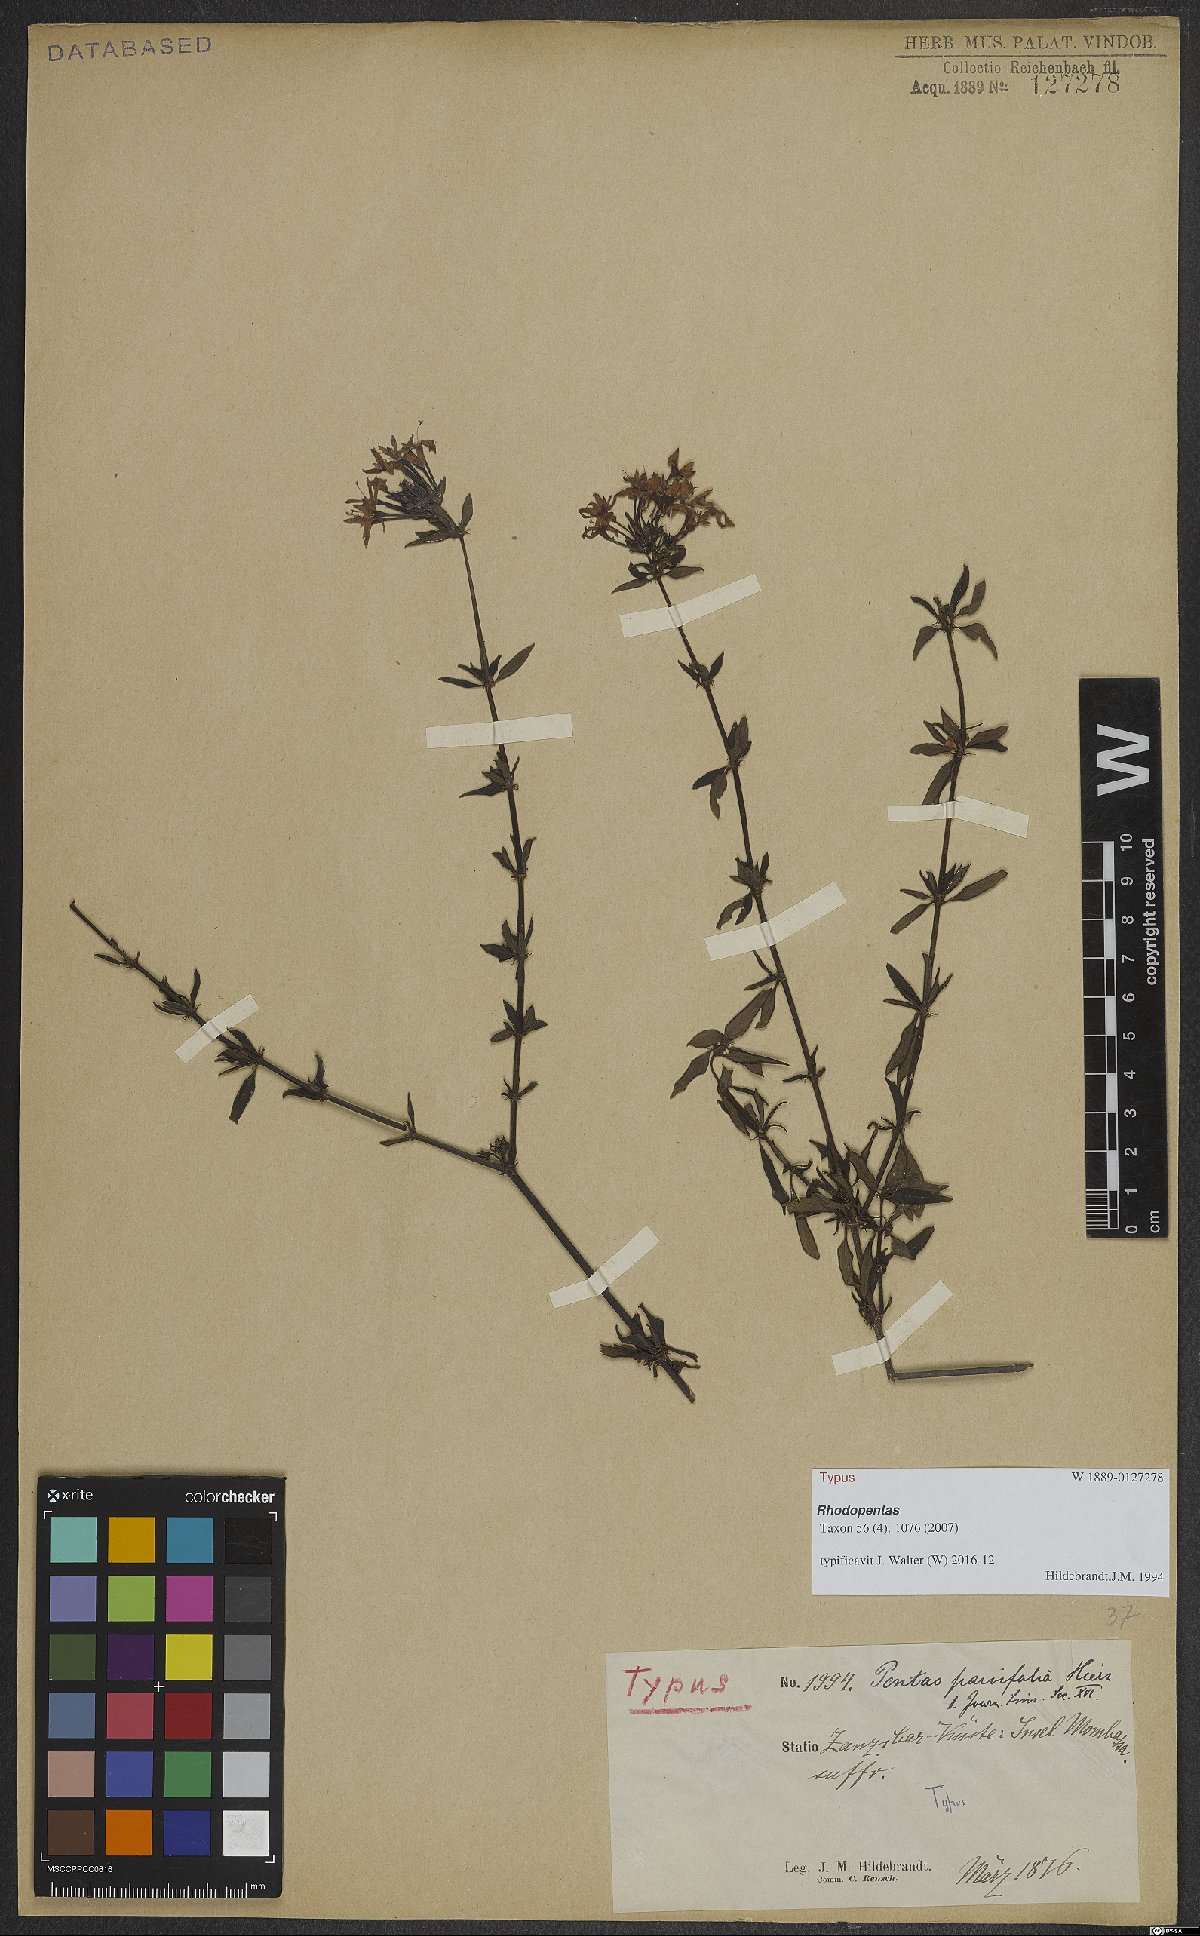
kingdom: Plantae
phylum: Tracheophyta
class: Magnoliopsida
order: Gentianales
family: Rubiaceae
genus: Rhodopentas
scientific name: Rhodopentas parvifolia
